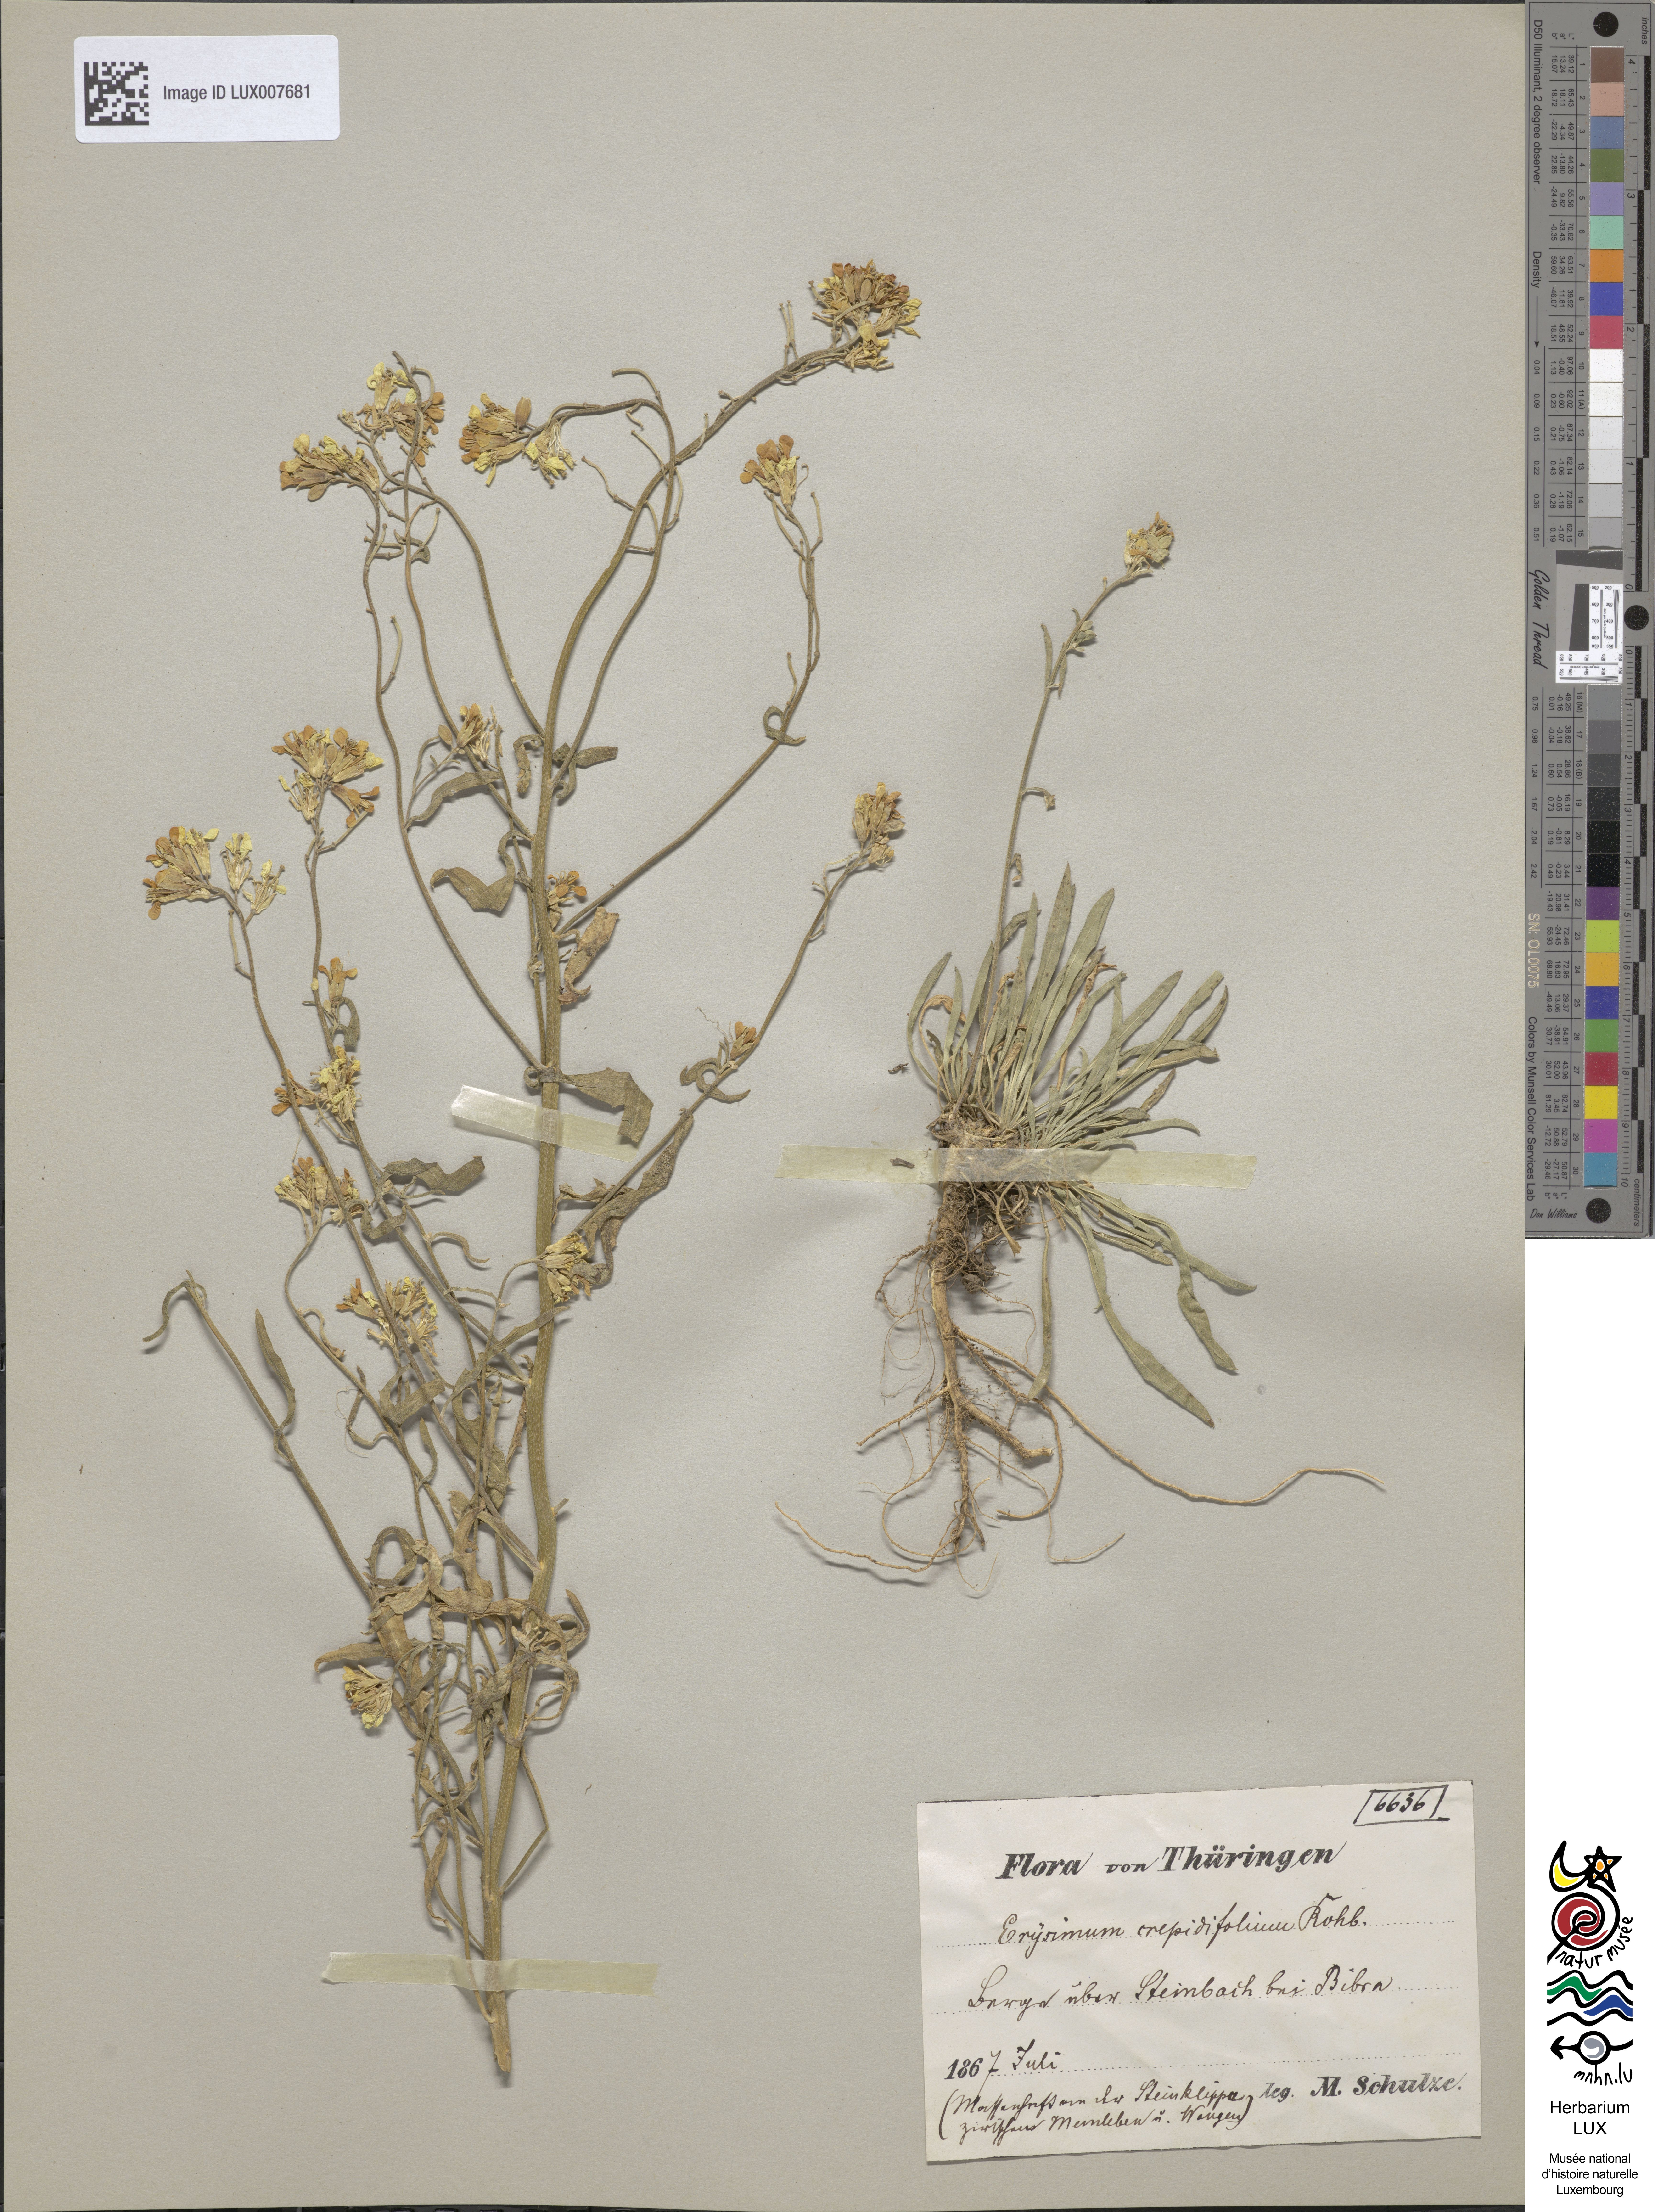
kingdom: Plantae
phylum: Tracheophyta
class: Magnoliopsida
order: Brassicales
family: Brassicaceae
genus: Erysimum
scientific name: Erysimum crepidifolium
